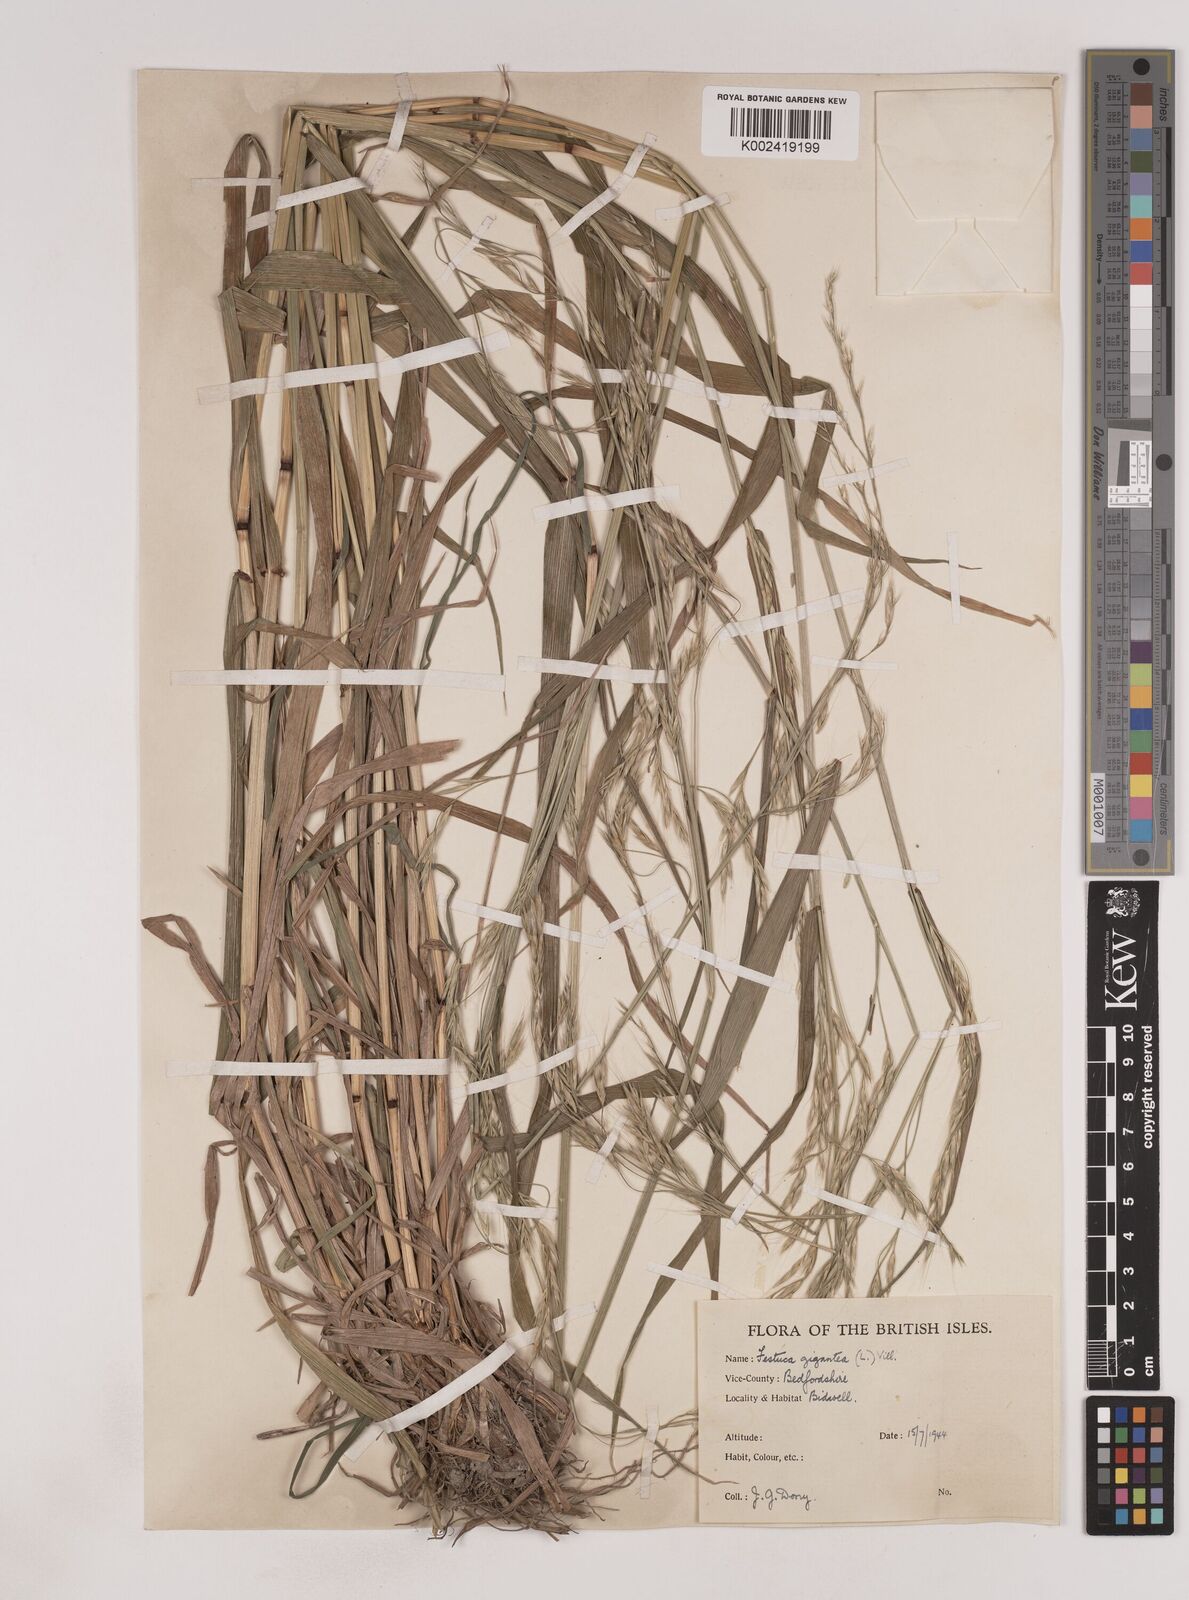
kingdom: Plantae
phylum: Tracheophyta
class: Liliopsida
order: Poales
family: Poaceae
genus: Lolium
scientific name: Lolium giganteum
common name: Giant fescue
